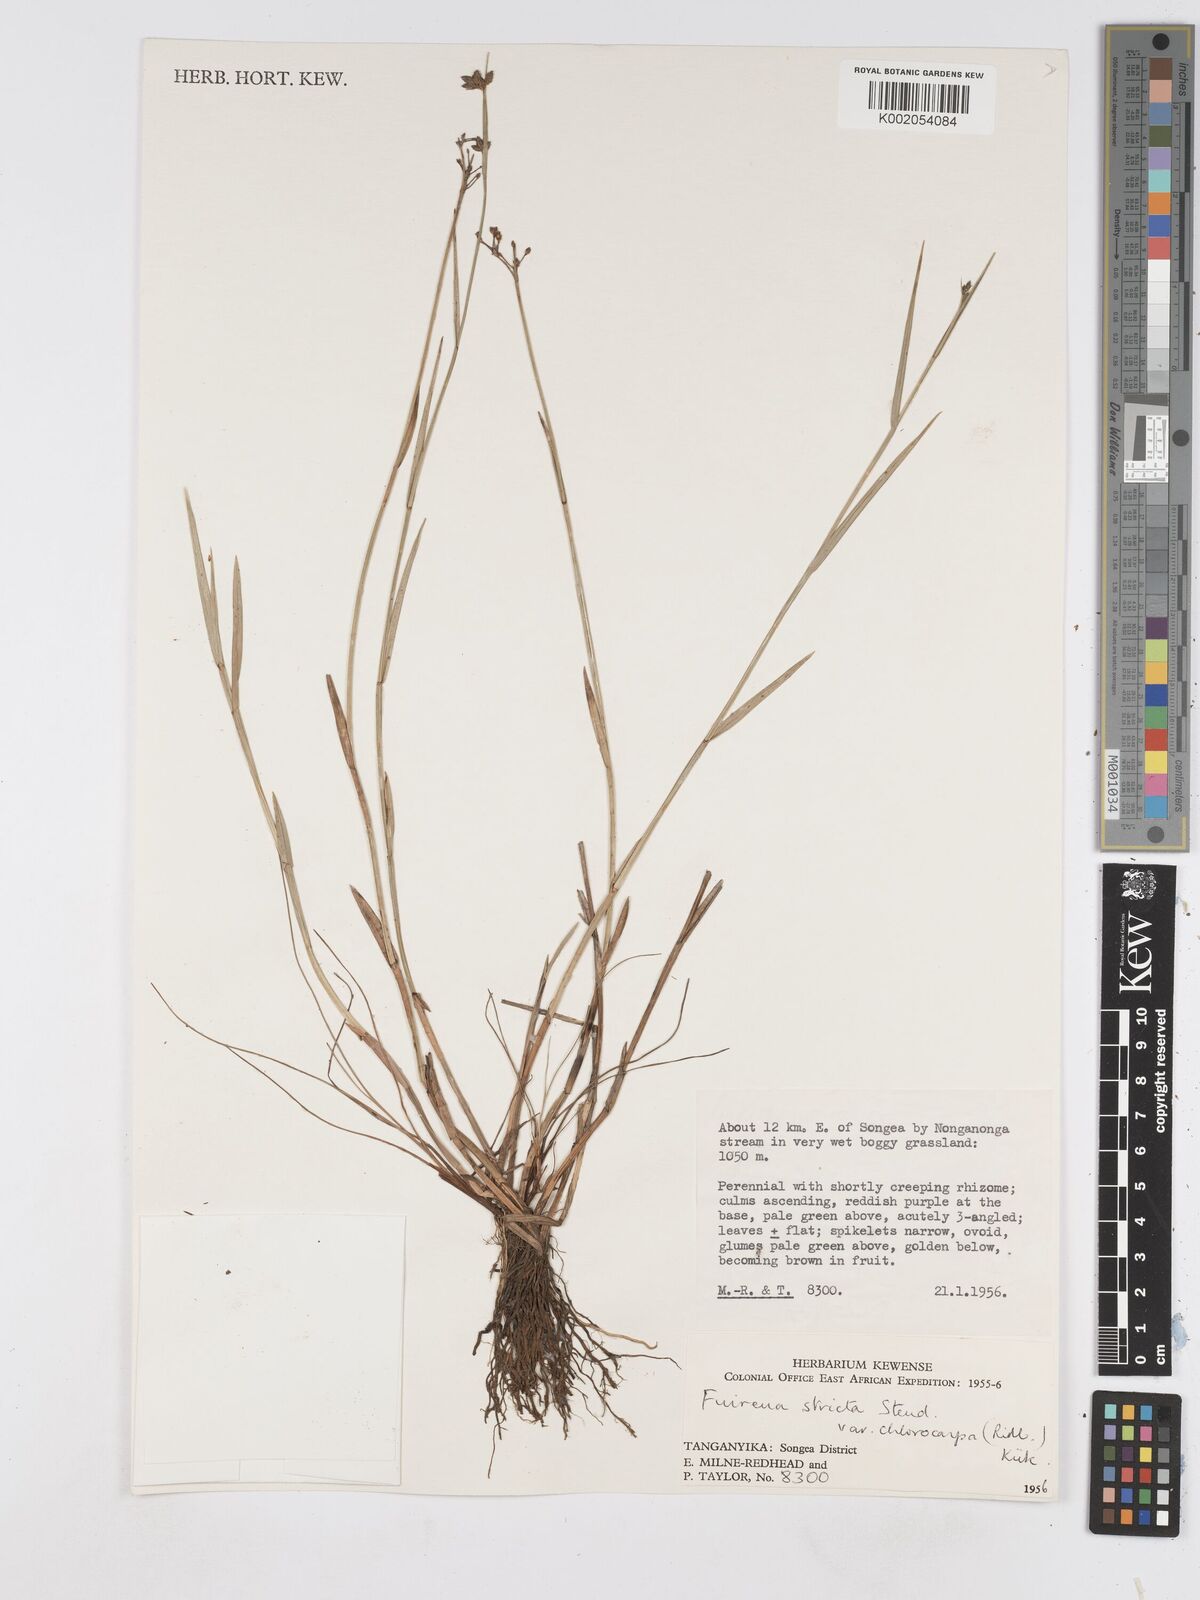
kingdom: Plantae
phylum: Tracheophyta
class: Liliopsida
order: Poales
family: Cyperaceae
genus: Fuirena
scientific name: Fuirena stricta
